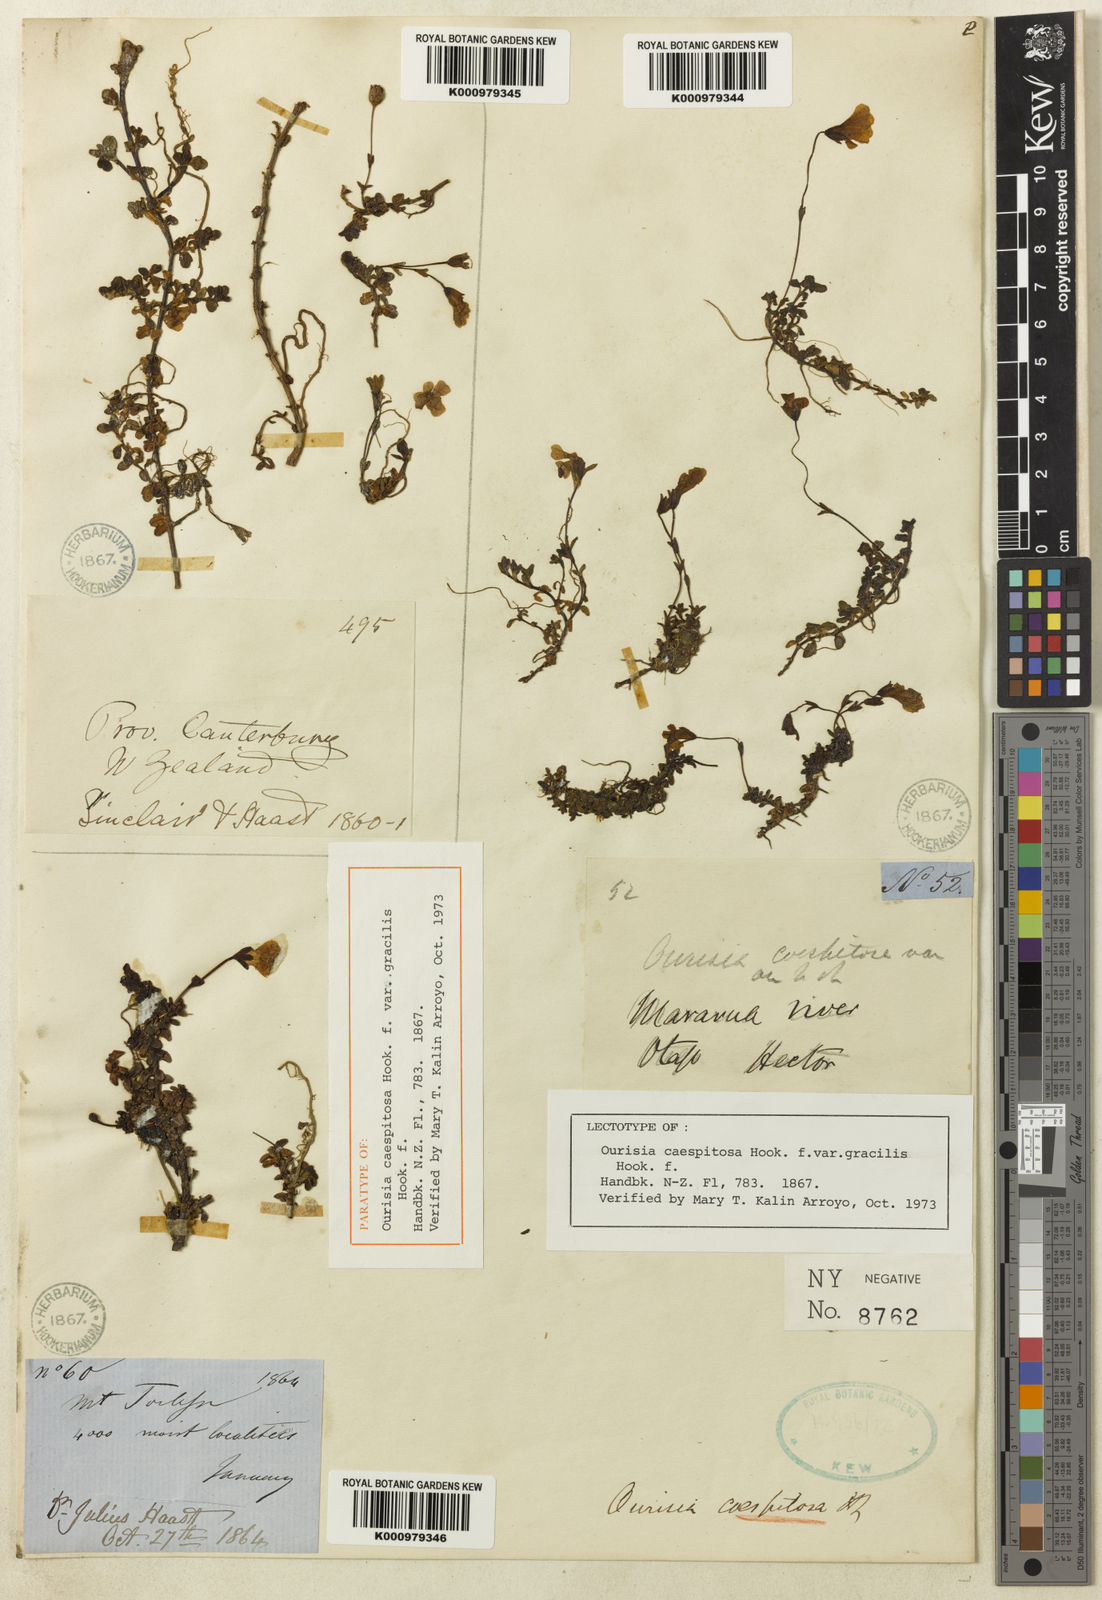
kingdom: Plantae
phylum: Tracheophyta
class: Magnoliopsida
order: Lamiales
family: Plantaginaceae
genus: Ourisia
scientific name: Ourisia caespitosa
